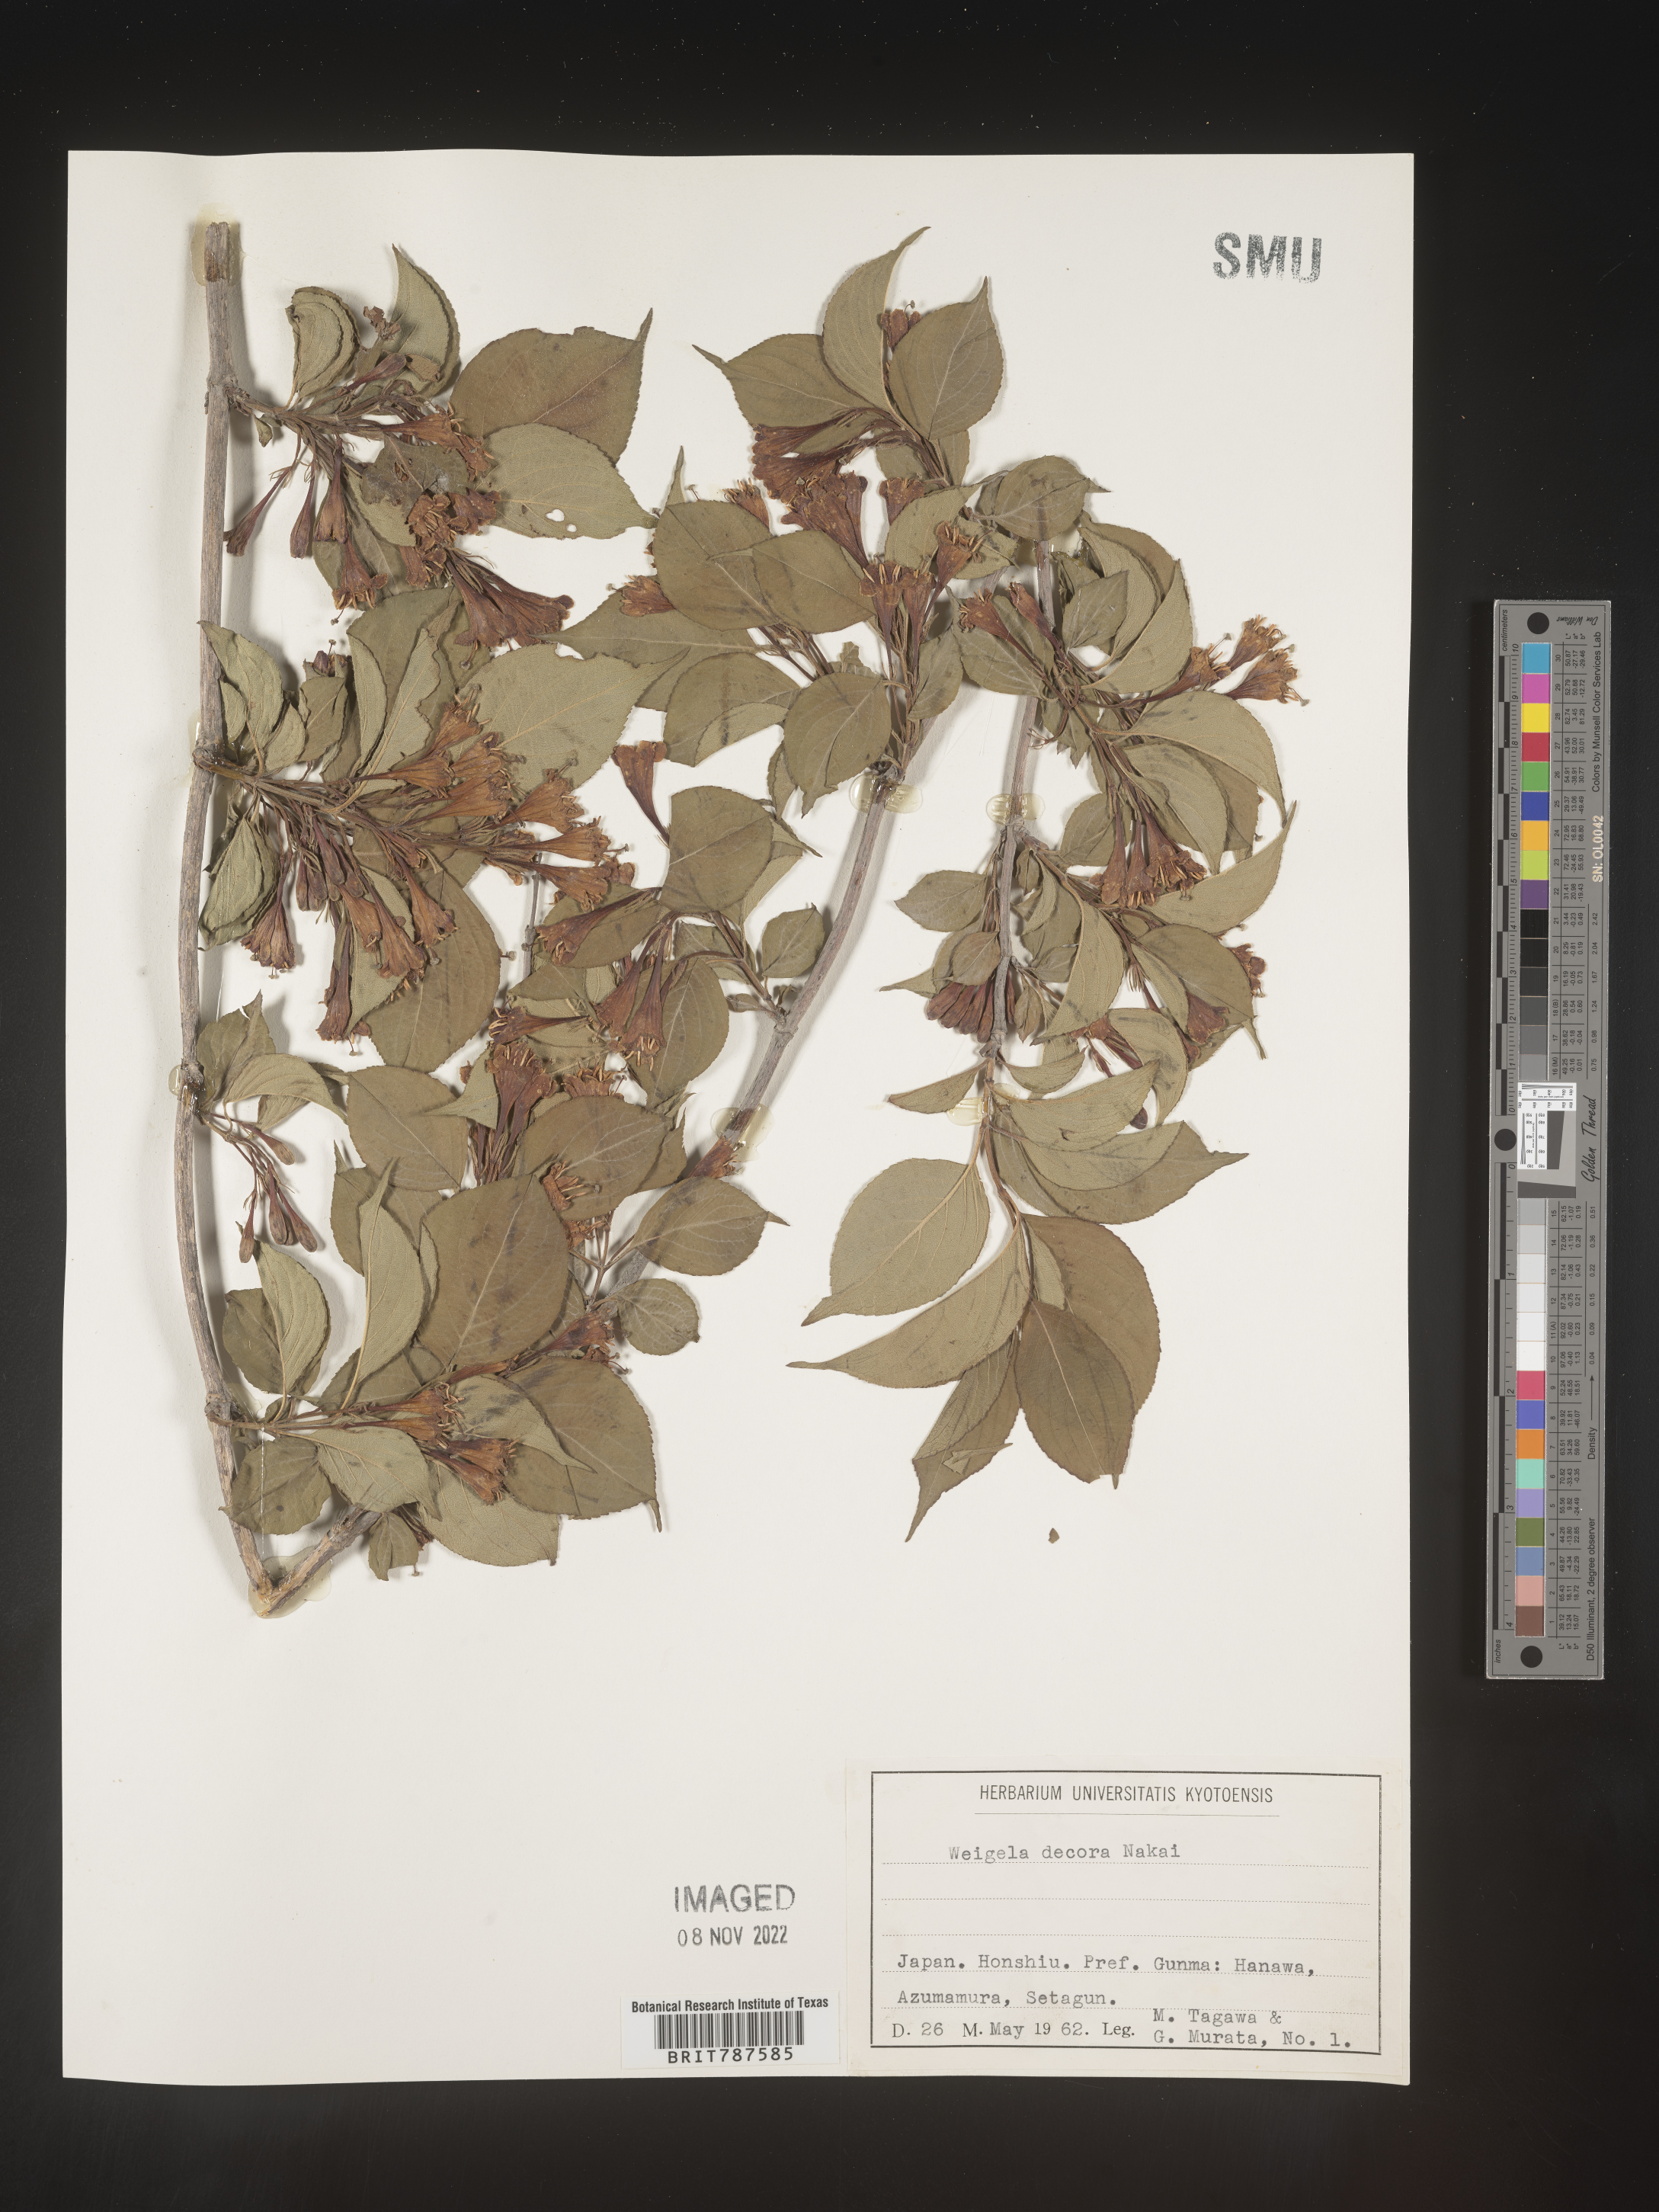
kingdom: Plantae
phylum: Tracheophyta
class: Magnoliopsida
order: Dipsacales
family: Caprifoliaceae
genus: Weigela
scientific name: Weigela
